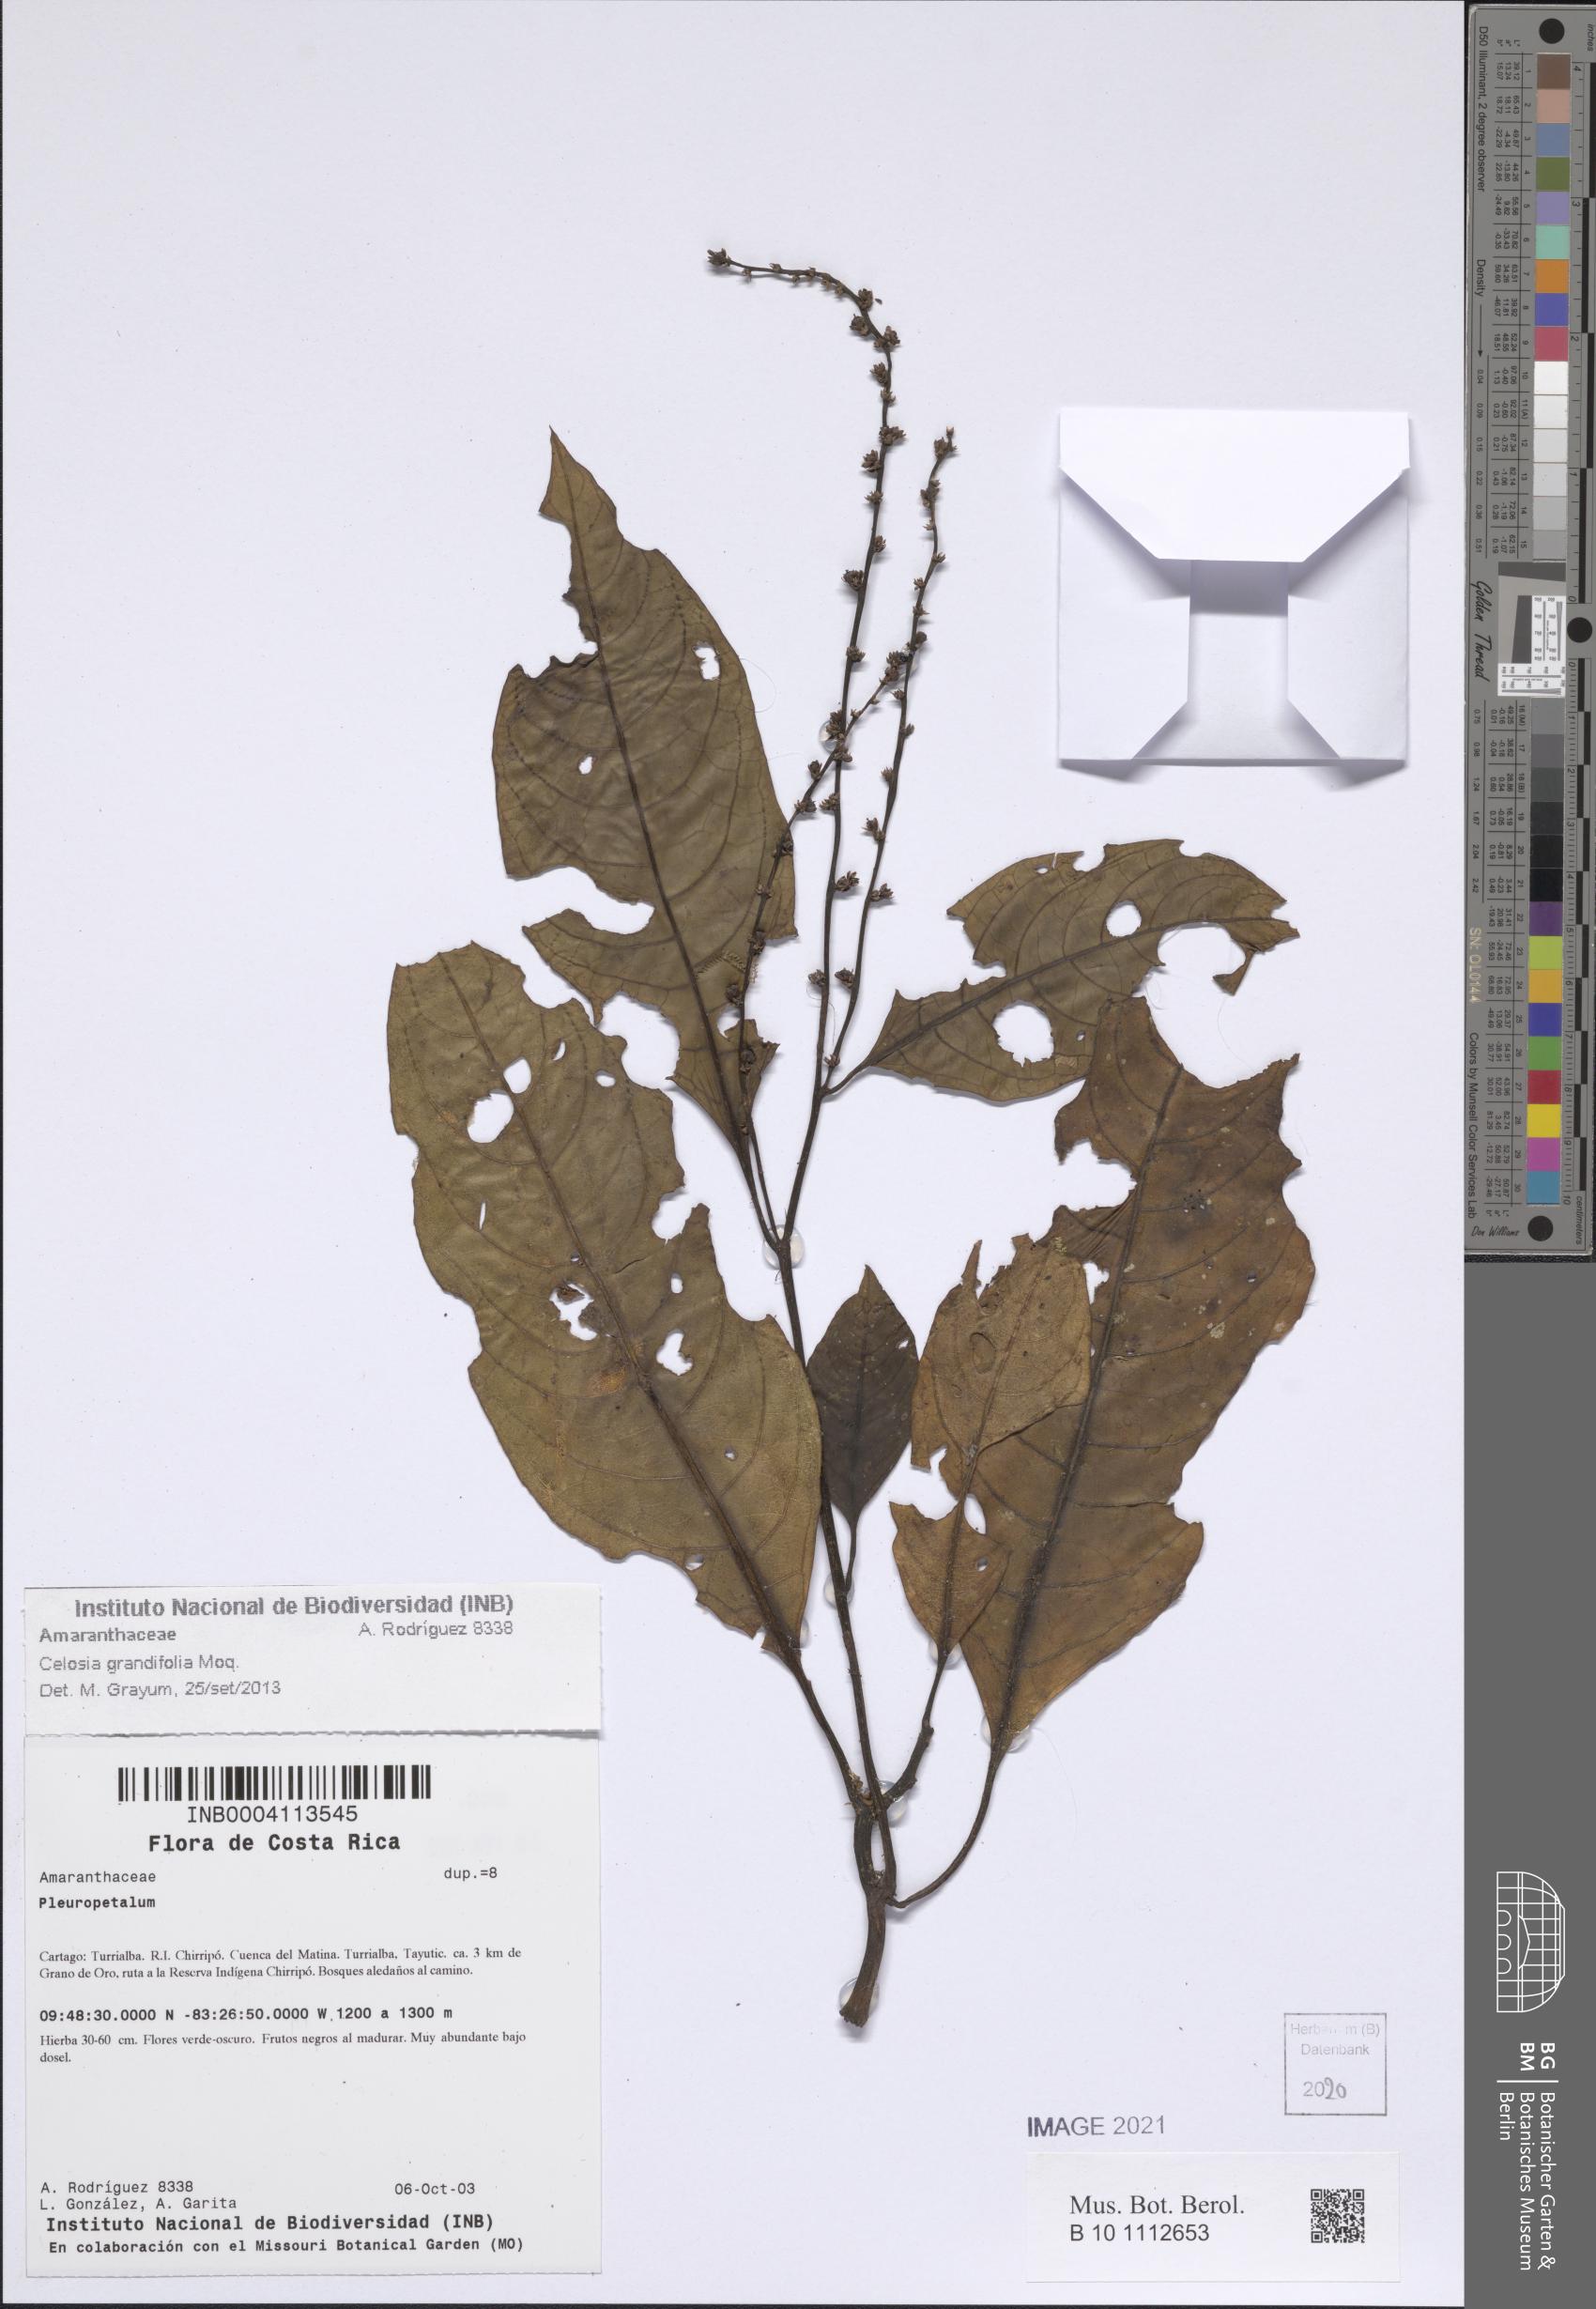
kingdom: Plantae
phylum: Tracheophyta
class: Magnoliopsida
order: Caryophyllales
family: Amaranthaceae
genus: Celosia
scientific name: Celosia grandifolia
